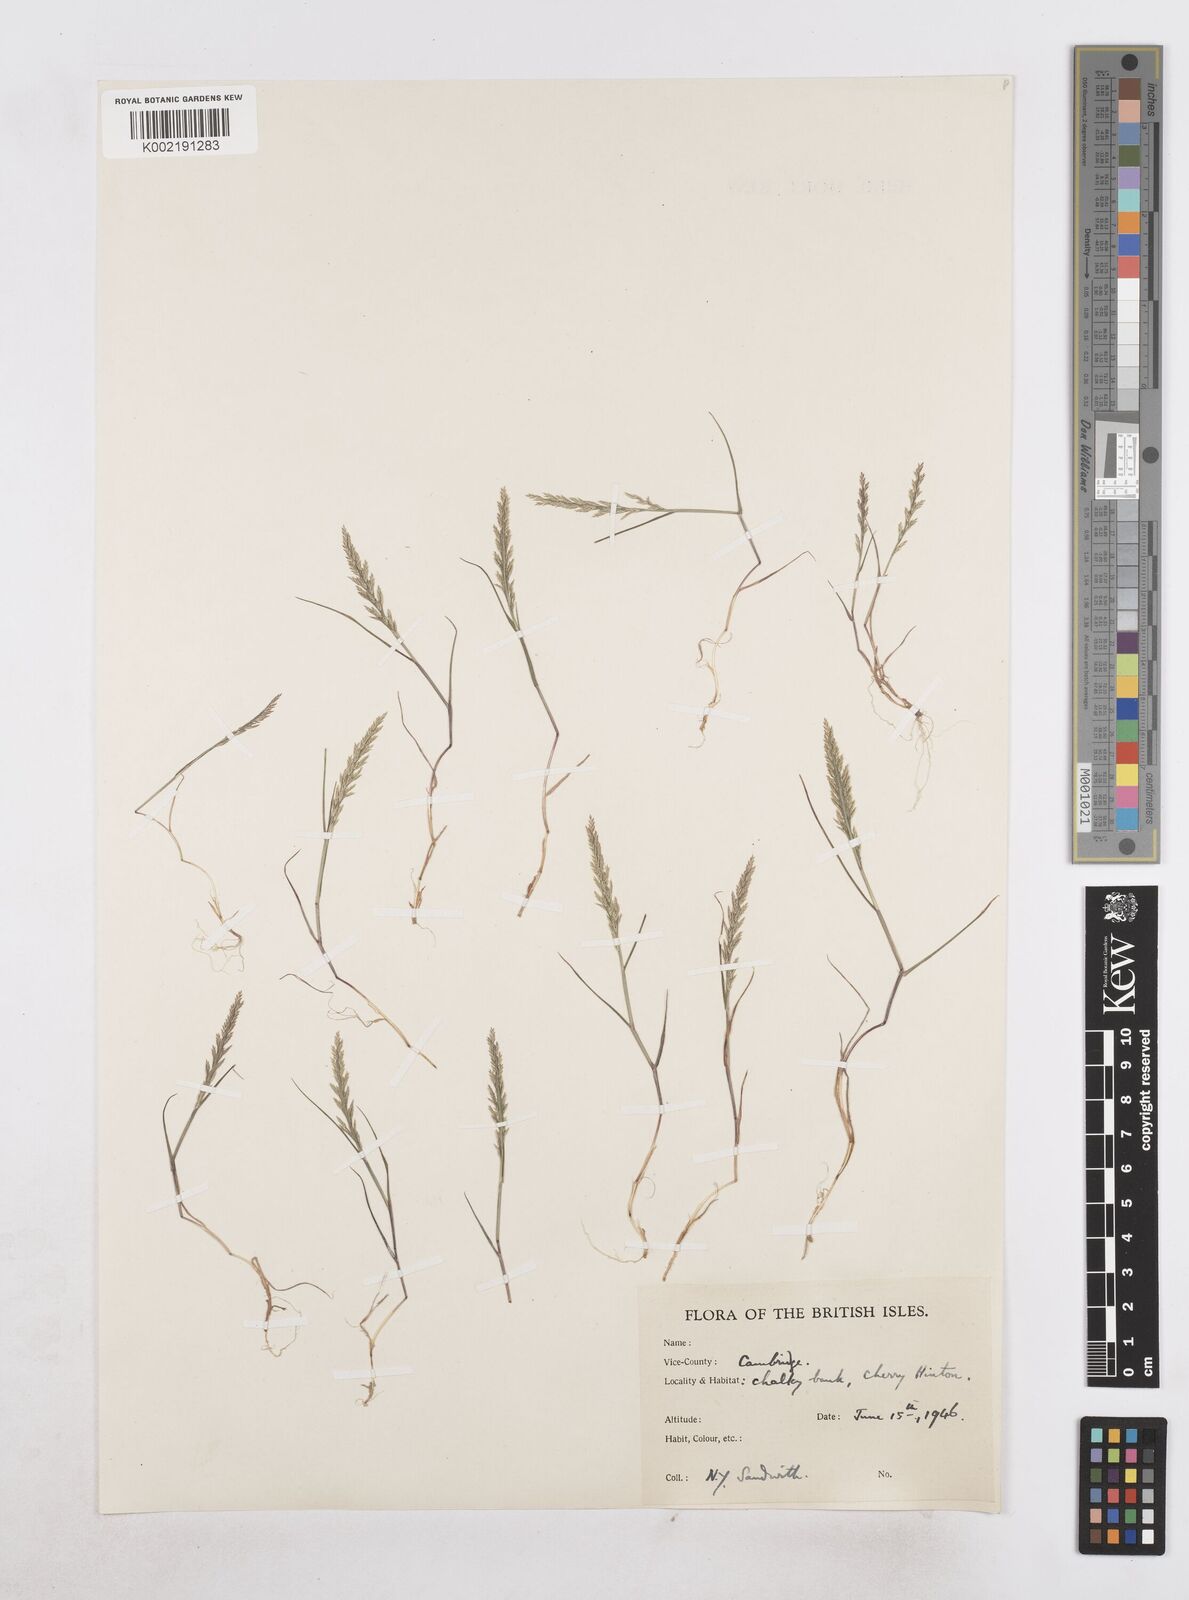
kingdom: Plantae
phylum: Tracheophyta
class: Liliopsida
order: Poales
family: Poaceae
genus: Catapodium
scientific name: Catapodium rigidum
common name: Fern-grass
